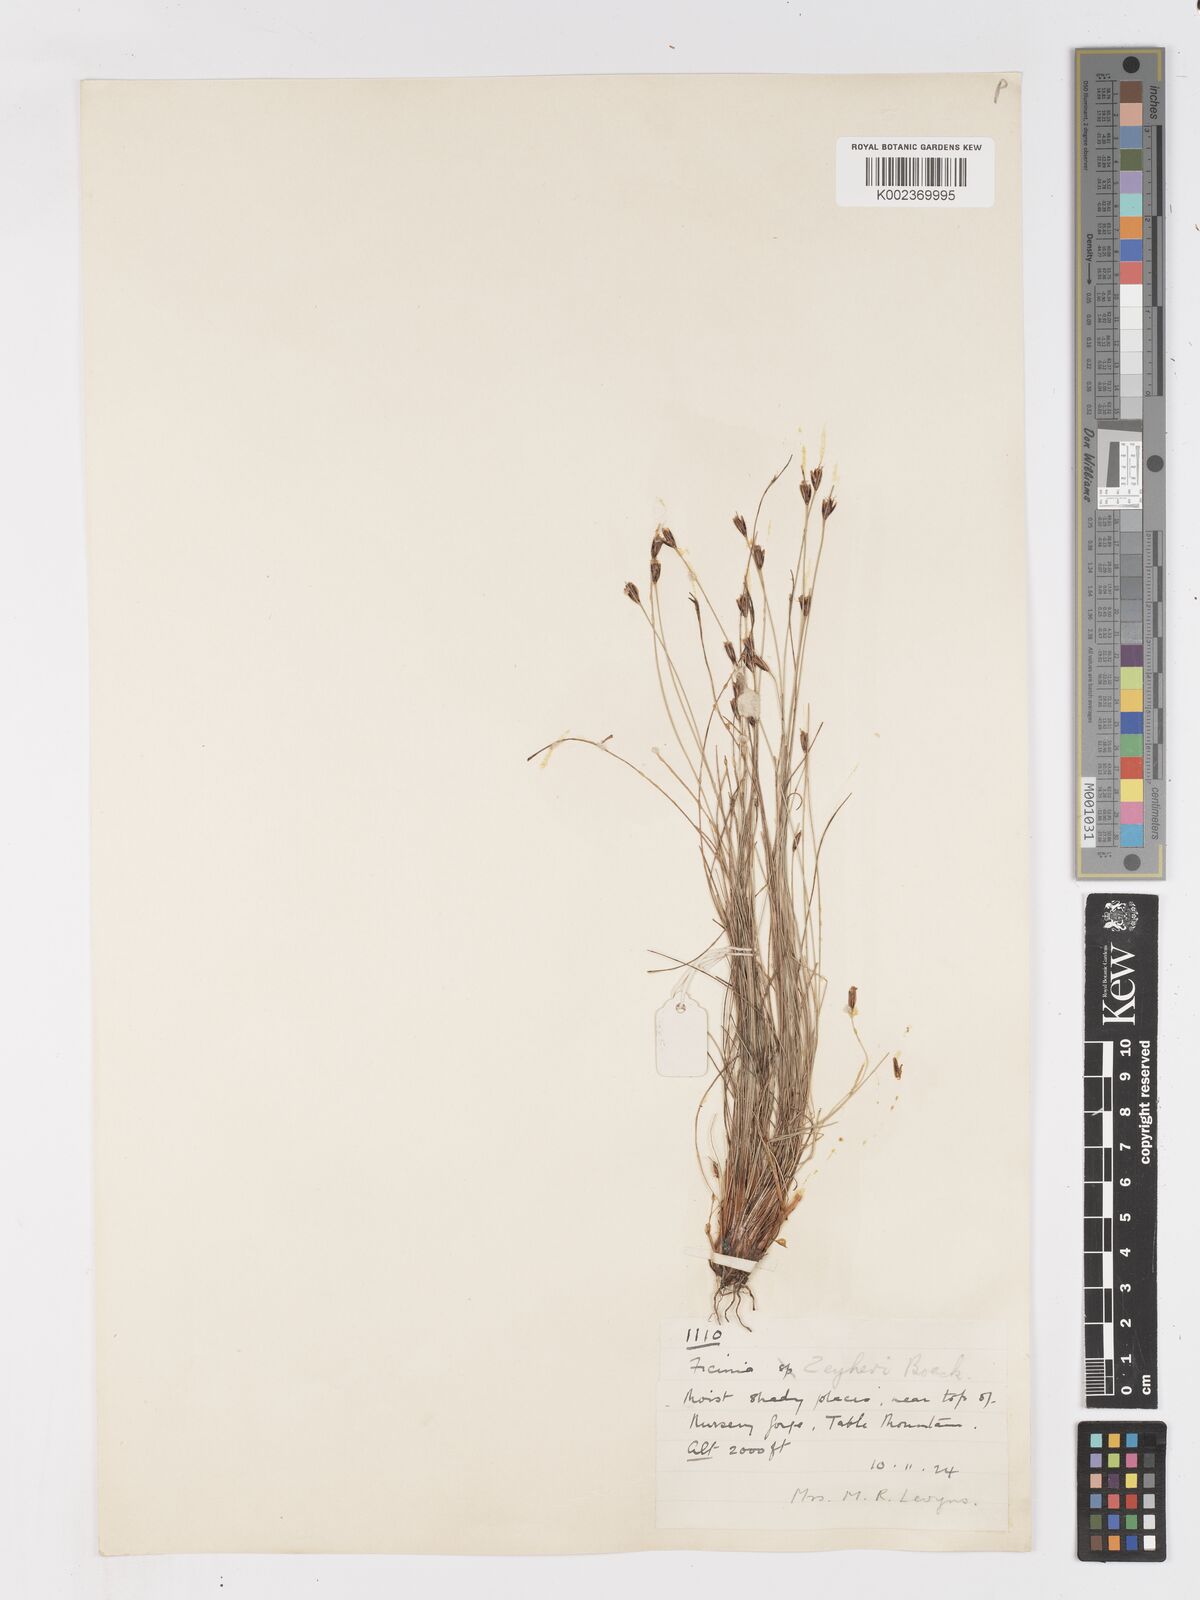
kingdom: Plantae
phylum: Tracheophyta
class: Liliopsida
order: Poales
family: Cyperaceae
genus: Ficinia
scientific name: Ficinia zeyheri
